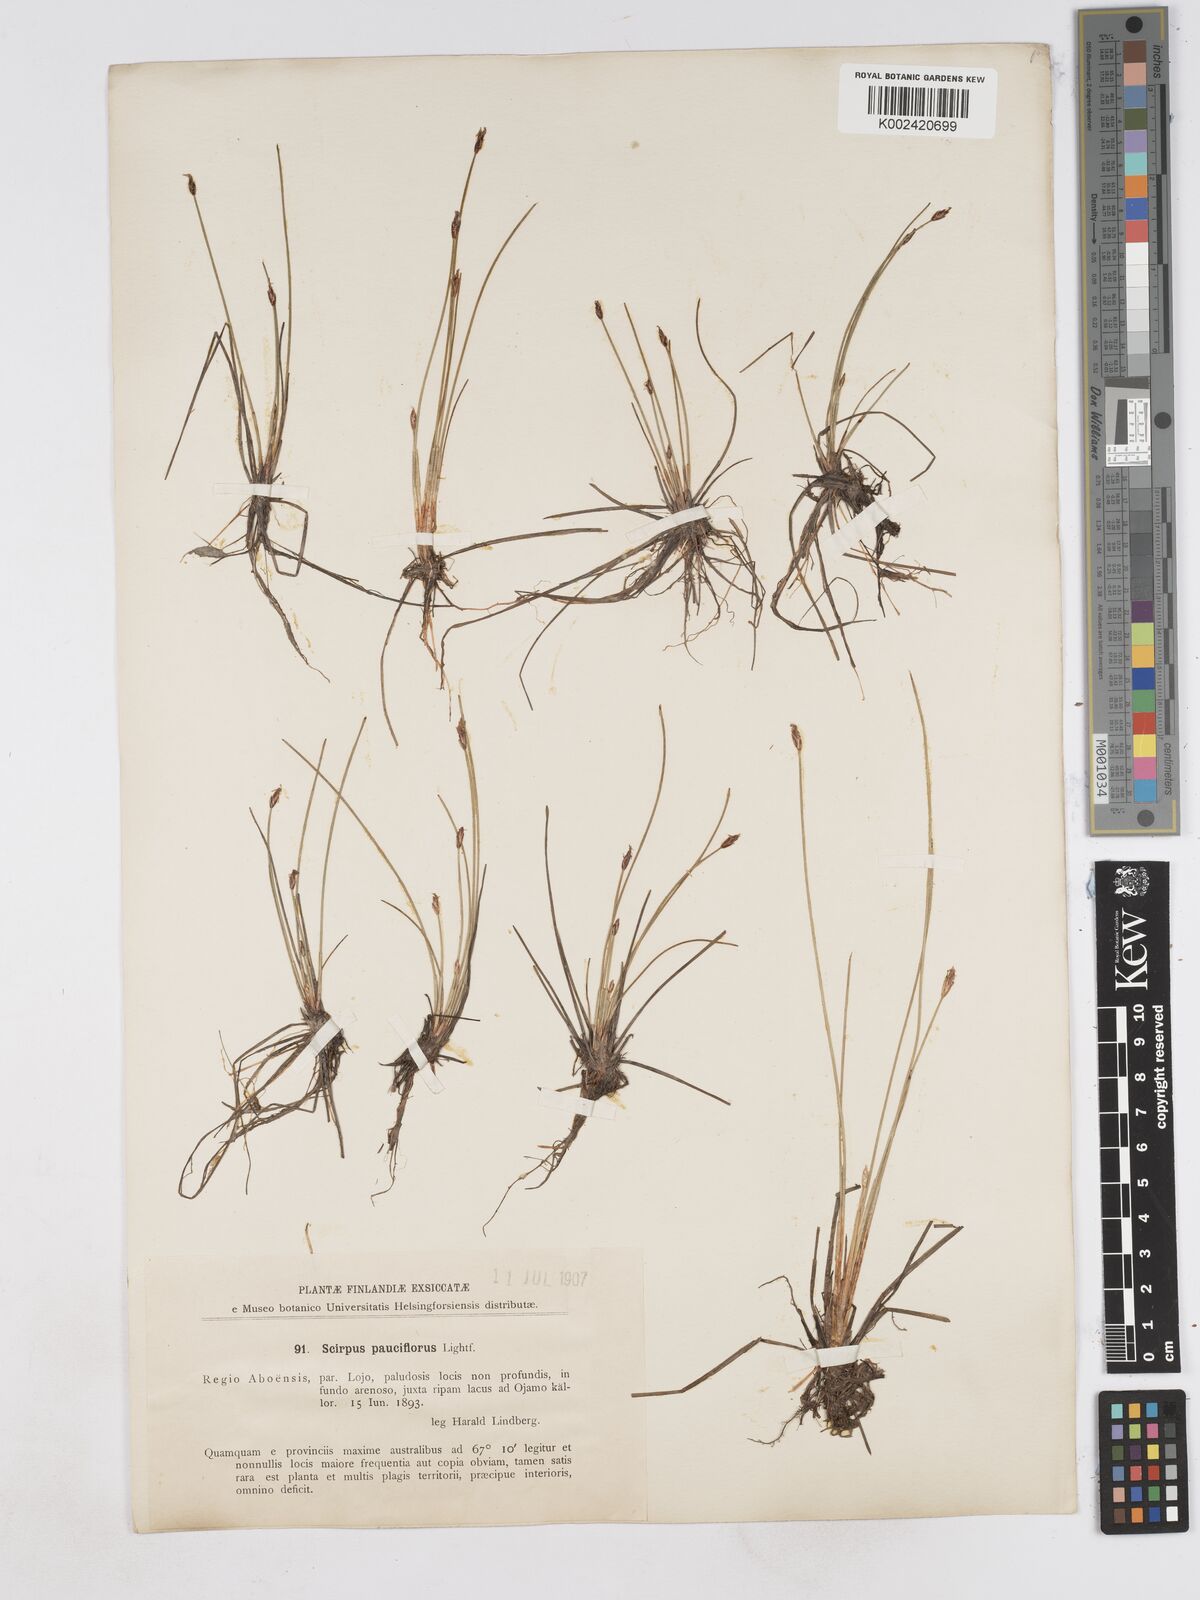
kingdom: Plantae
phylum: Tracheophyta
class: Liliopsida
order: Poales
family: Cyperaceae
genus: Eleocharis
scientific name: Eleocharis quinqueflora
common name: Few-flowered spike-rush
